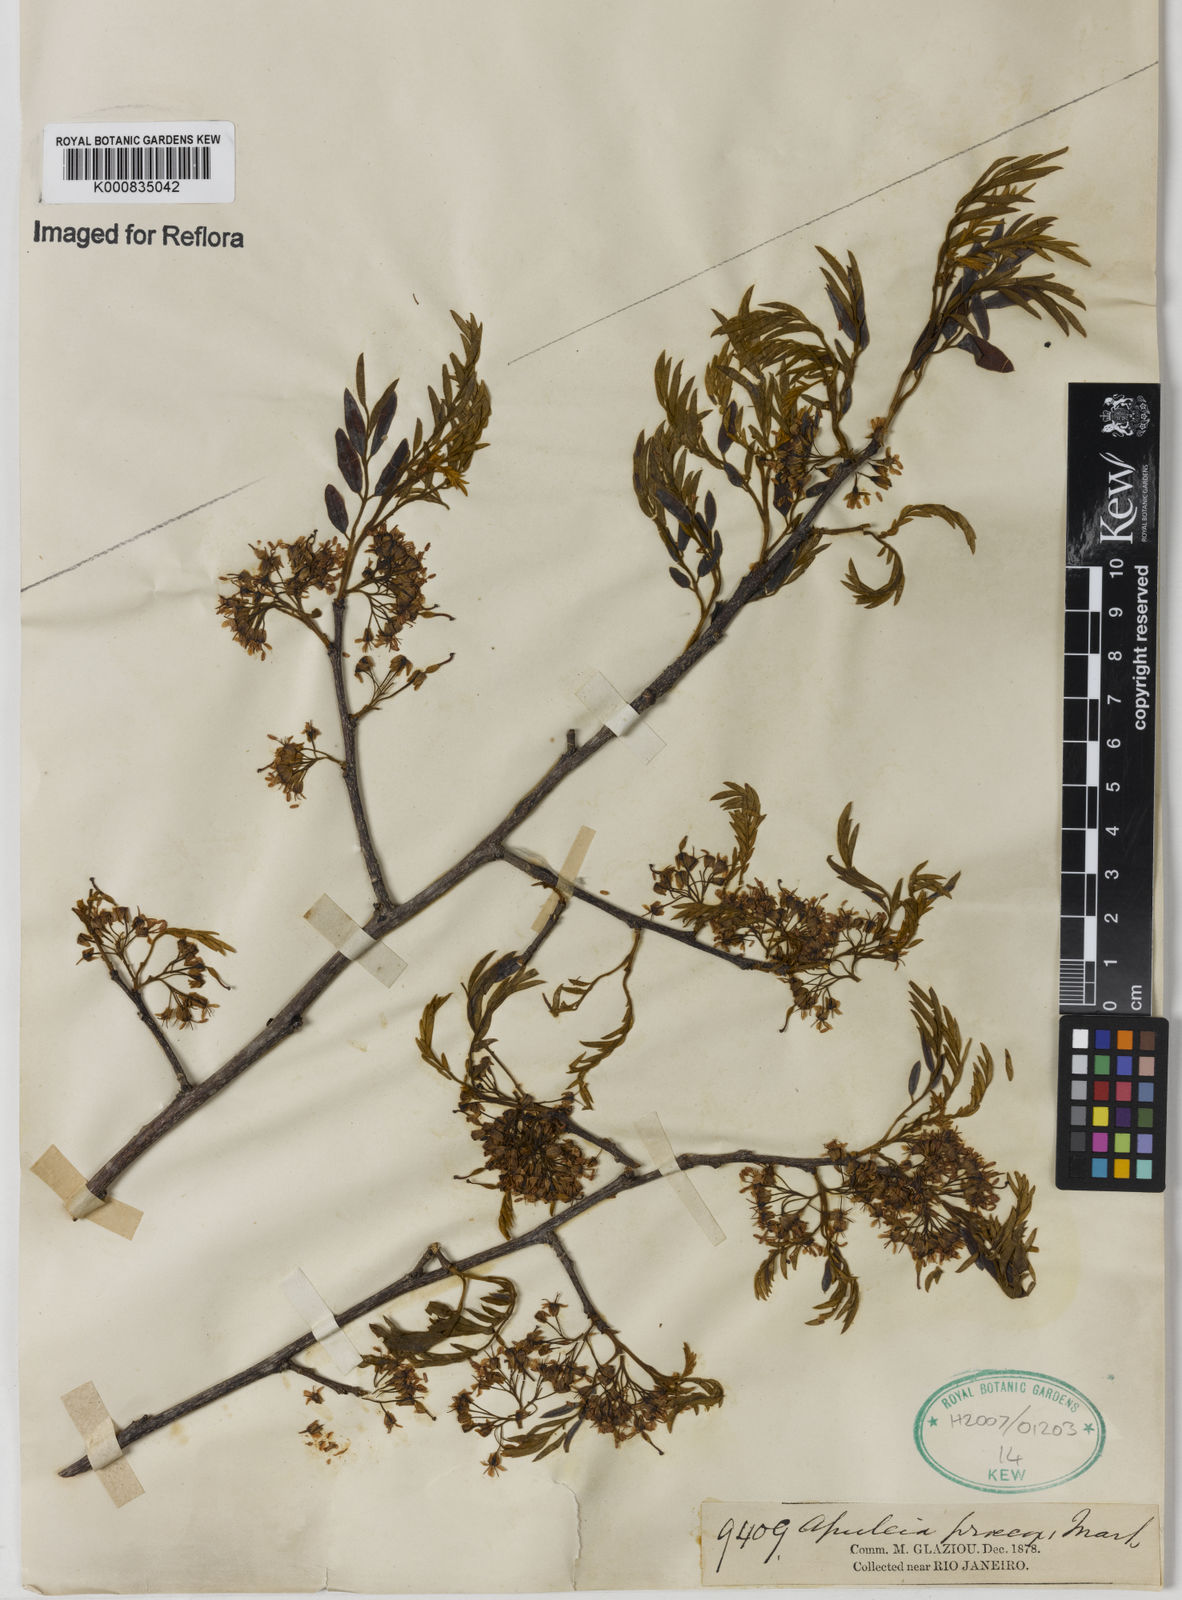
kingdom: Plantae
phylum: Tracheophyta
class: Magnoliopsida
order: Fabales
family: Fabaceae
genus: Apuleia
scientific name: Apuleia leiocarpa
